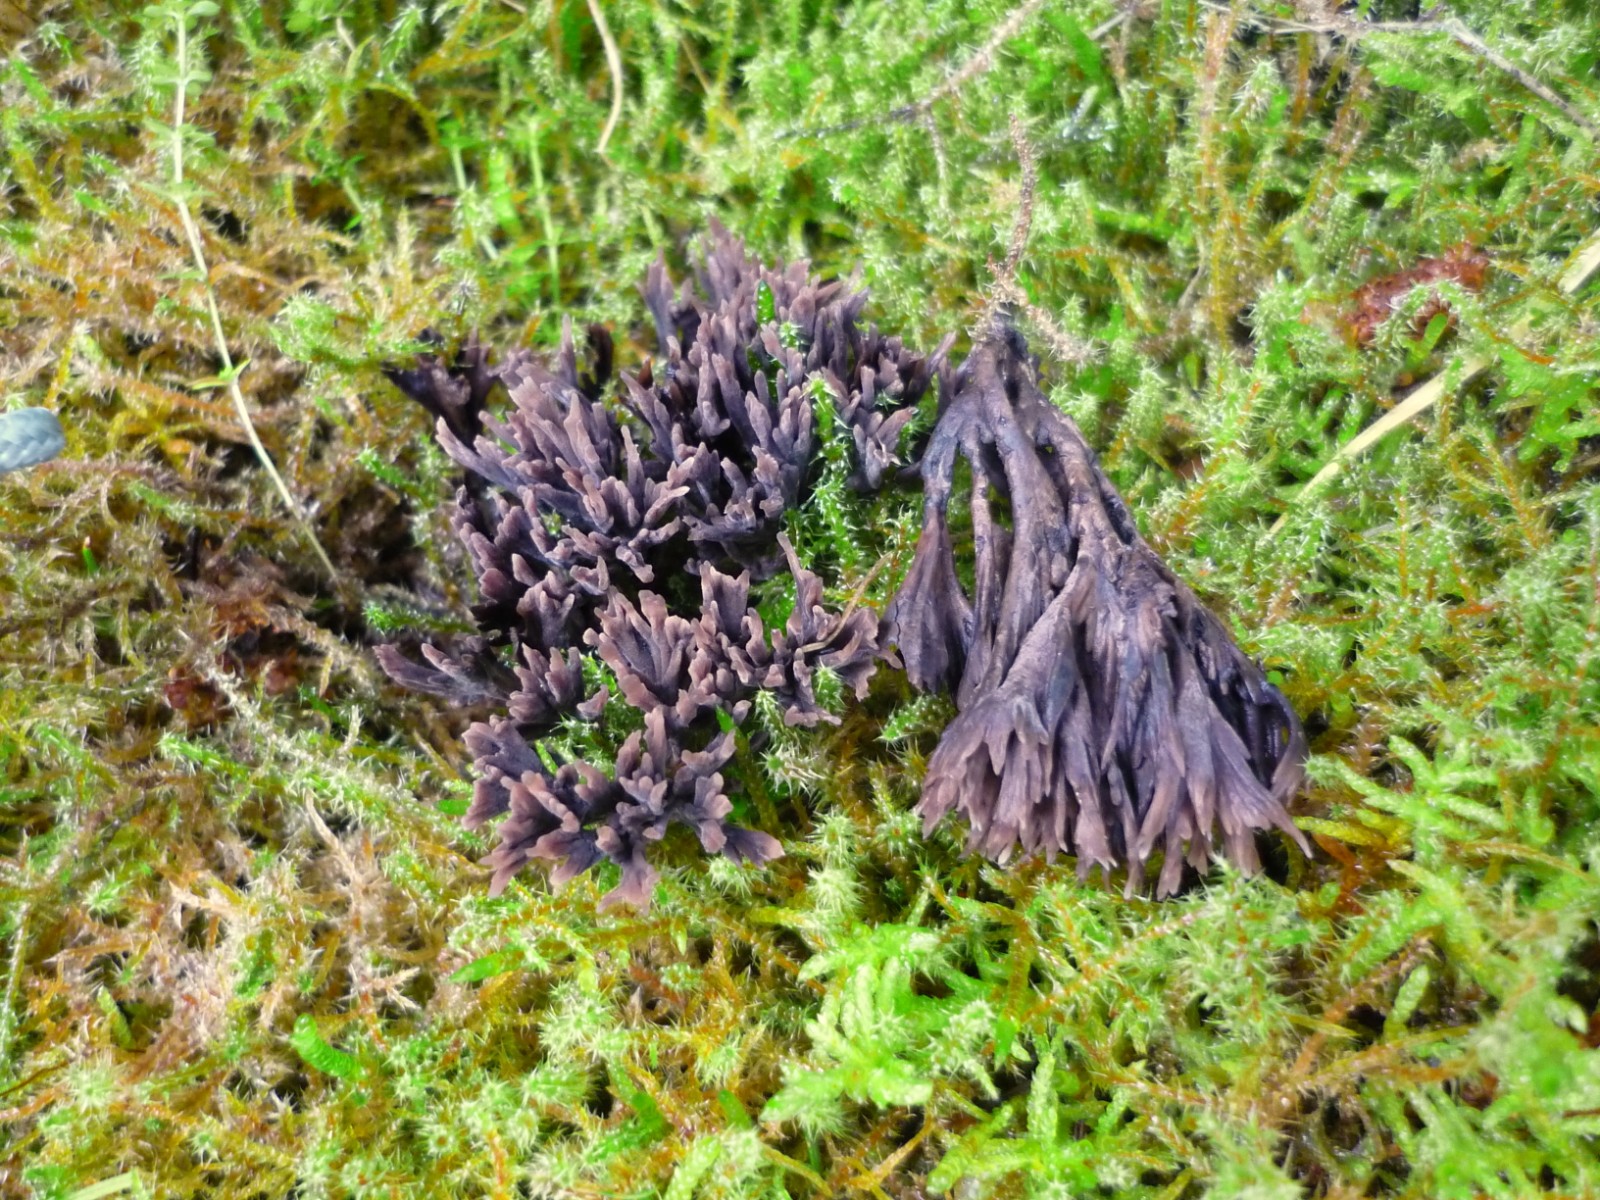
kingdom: Fungi
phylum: Basidiomycota
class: Agaricomycetes
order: Thelephorales
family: Thelephoraceae
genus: Thelephora
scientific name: Thelephora palmata
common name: grenet frynsesvamp
